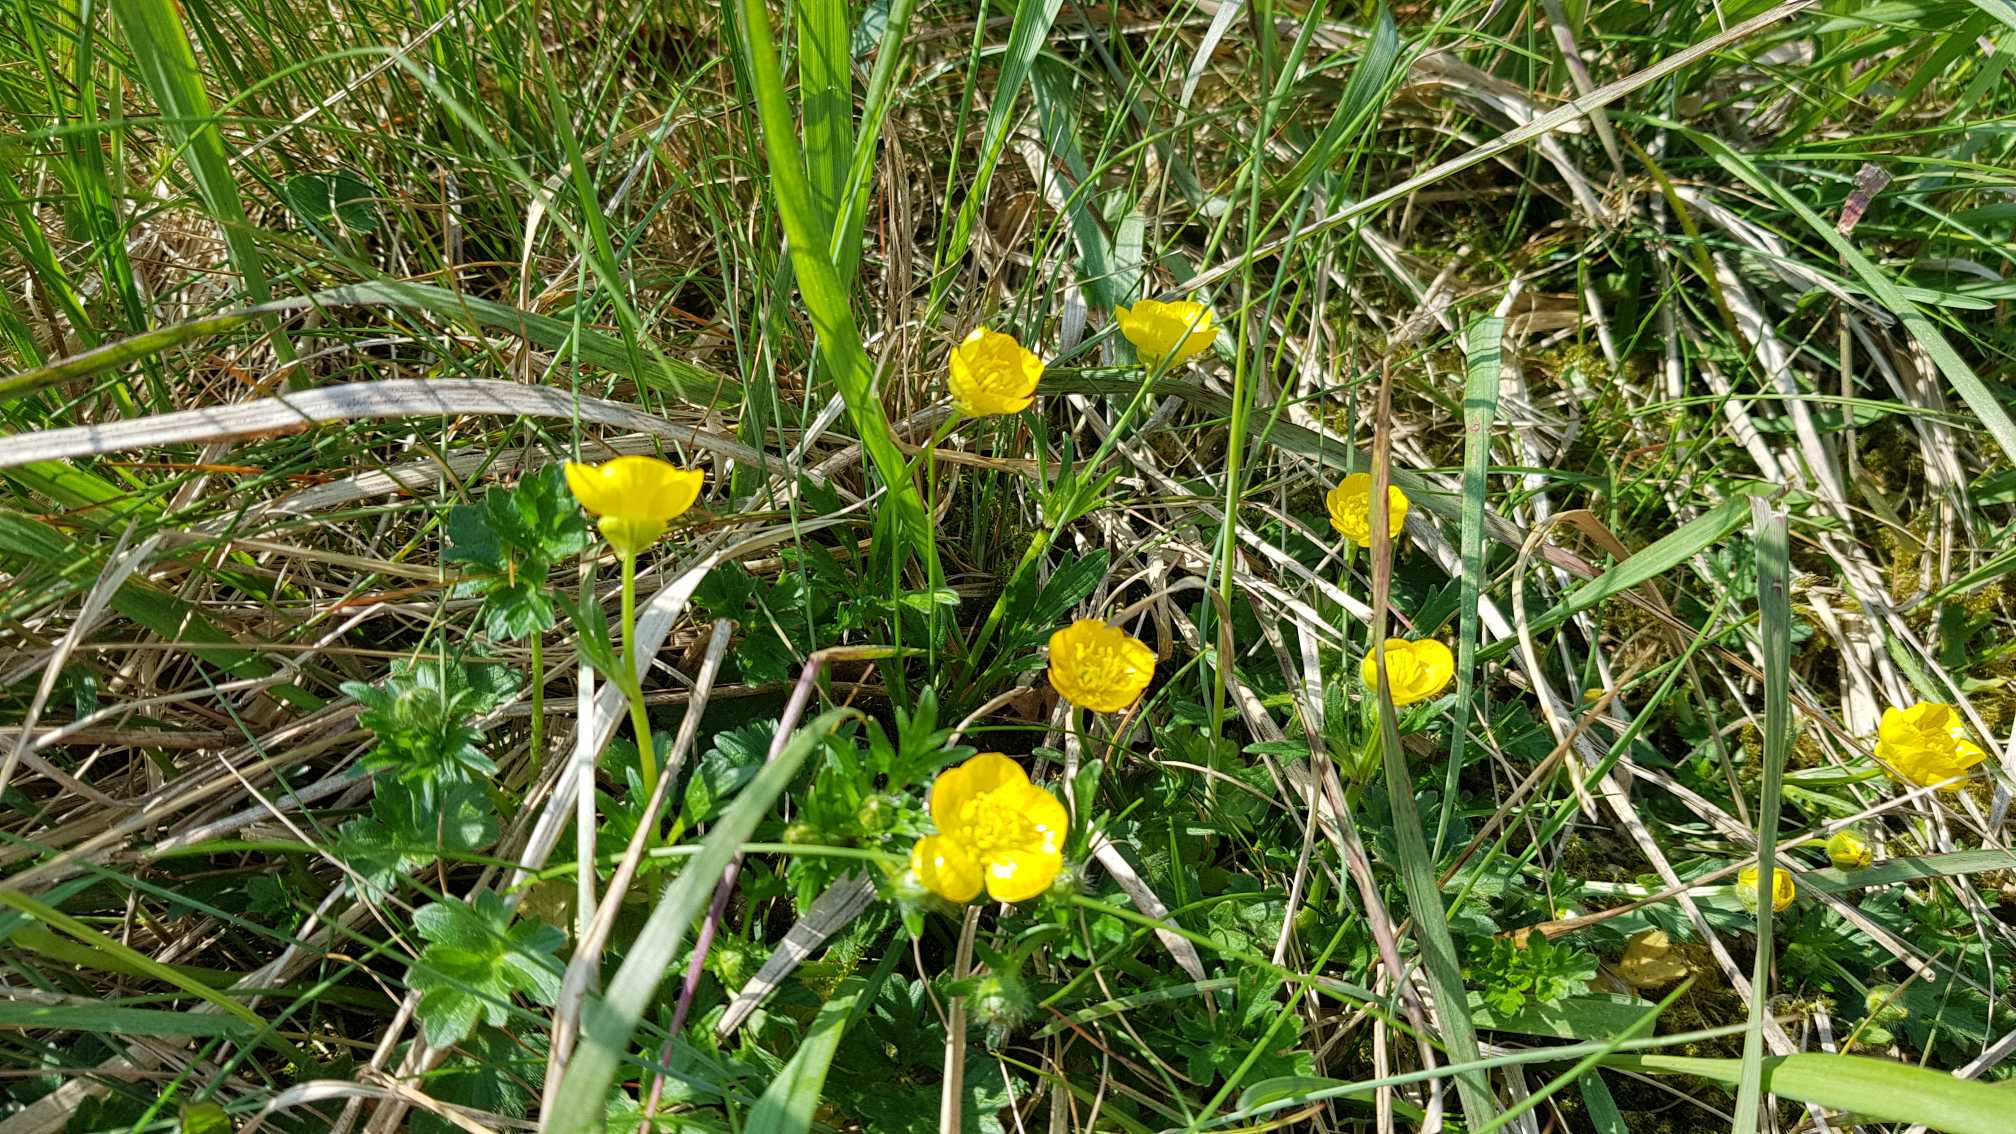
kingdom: Plantae
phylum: Tracheophyta
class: Magnoliopsida
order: Ranunculales
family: Ranunculaceae
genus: Ranunculus
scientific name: Ranunculus bulbosus
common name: Knold-ranunkel
